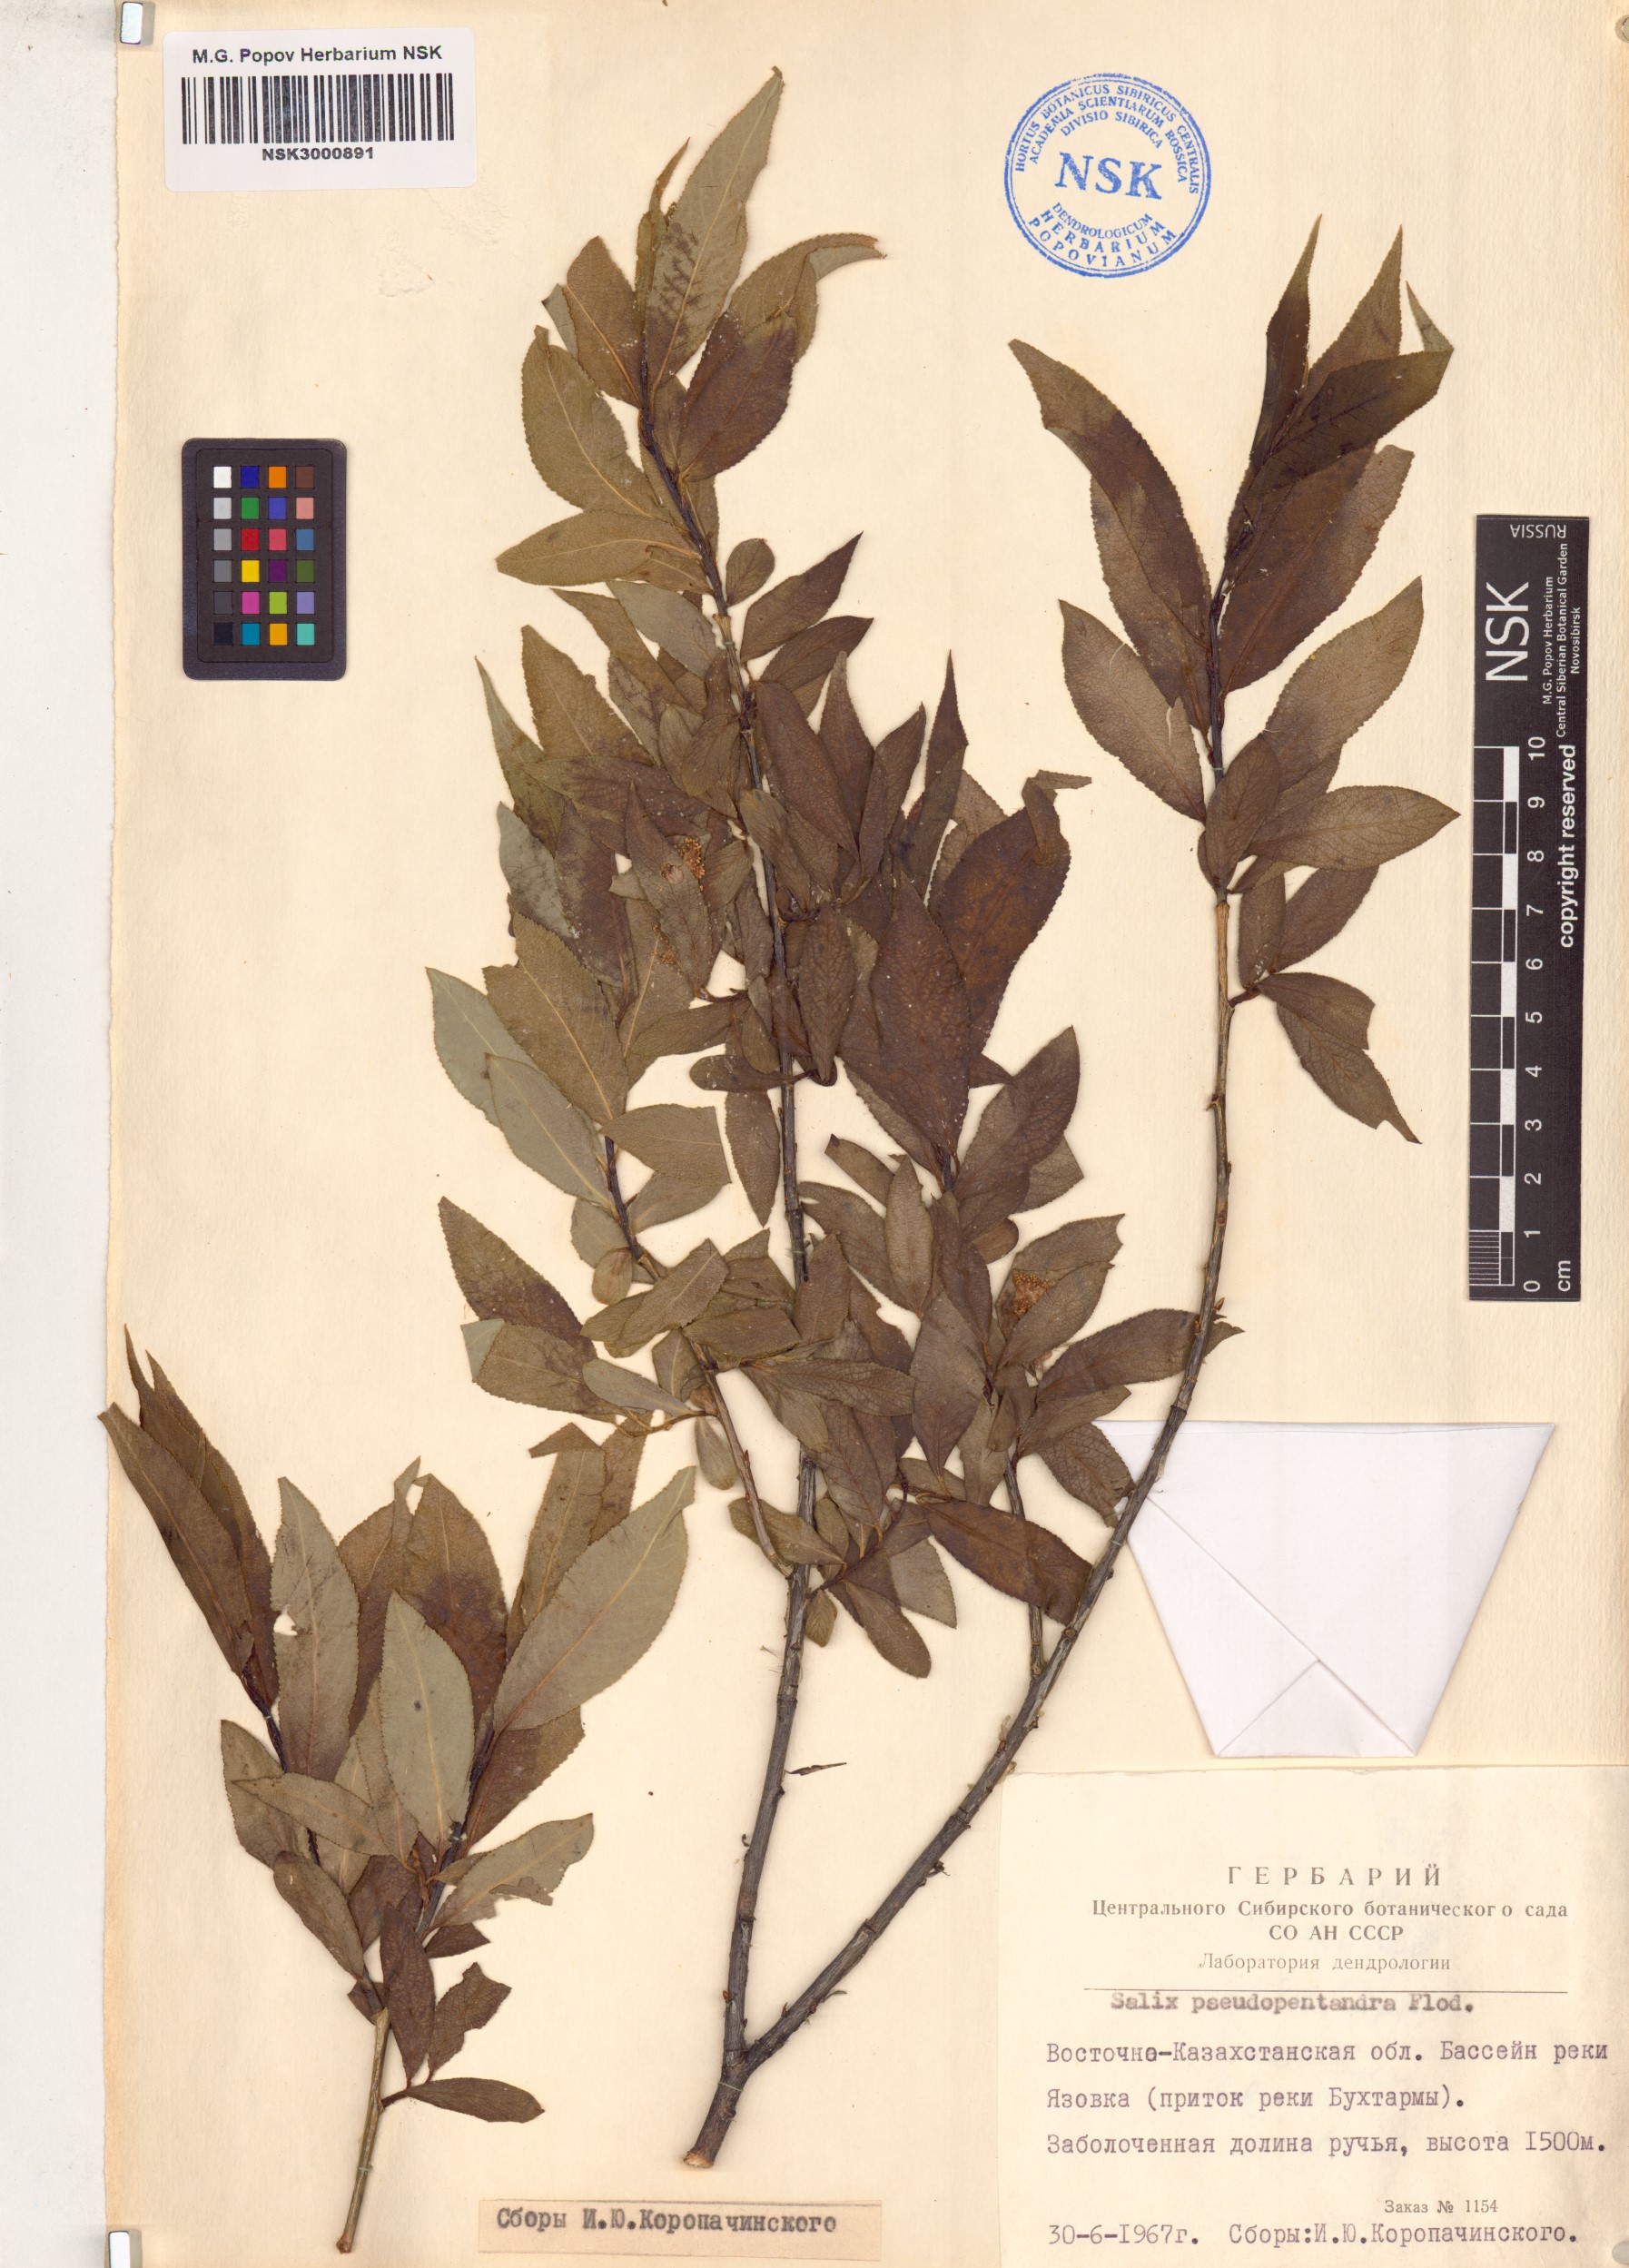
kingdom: Plantae
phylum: Tracheophyta
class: Magnoliopsida
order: Malpighiales
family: Salicaceae
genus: Salix
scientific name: Salix pseudopentandra
